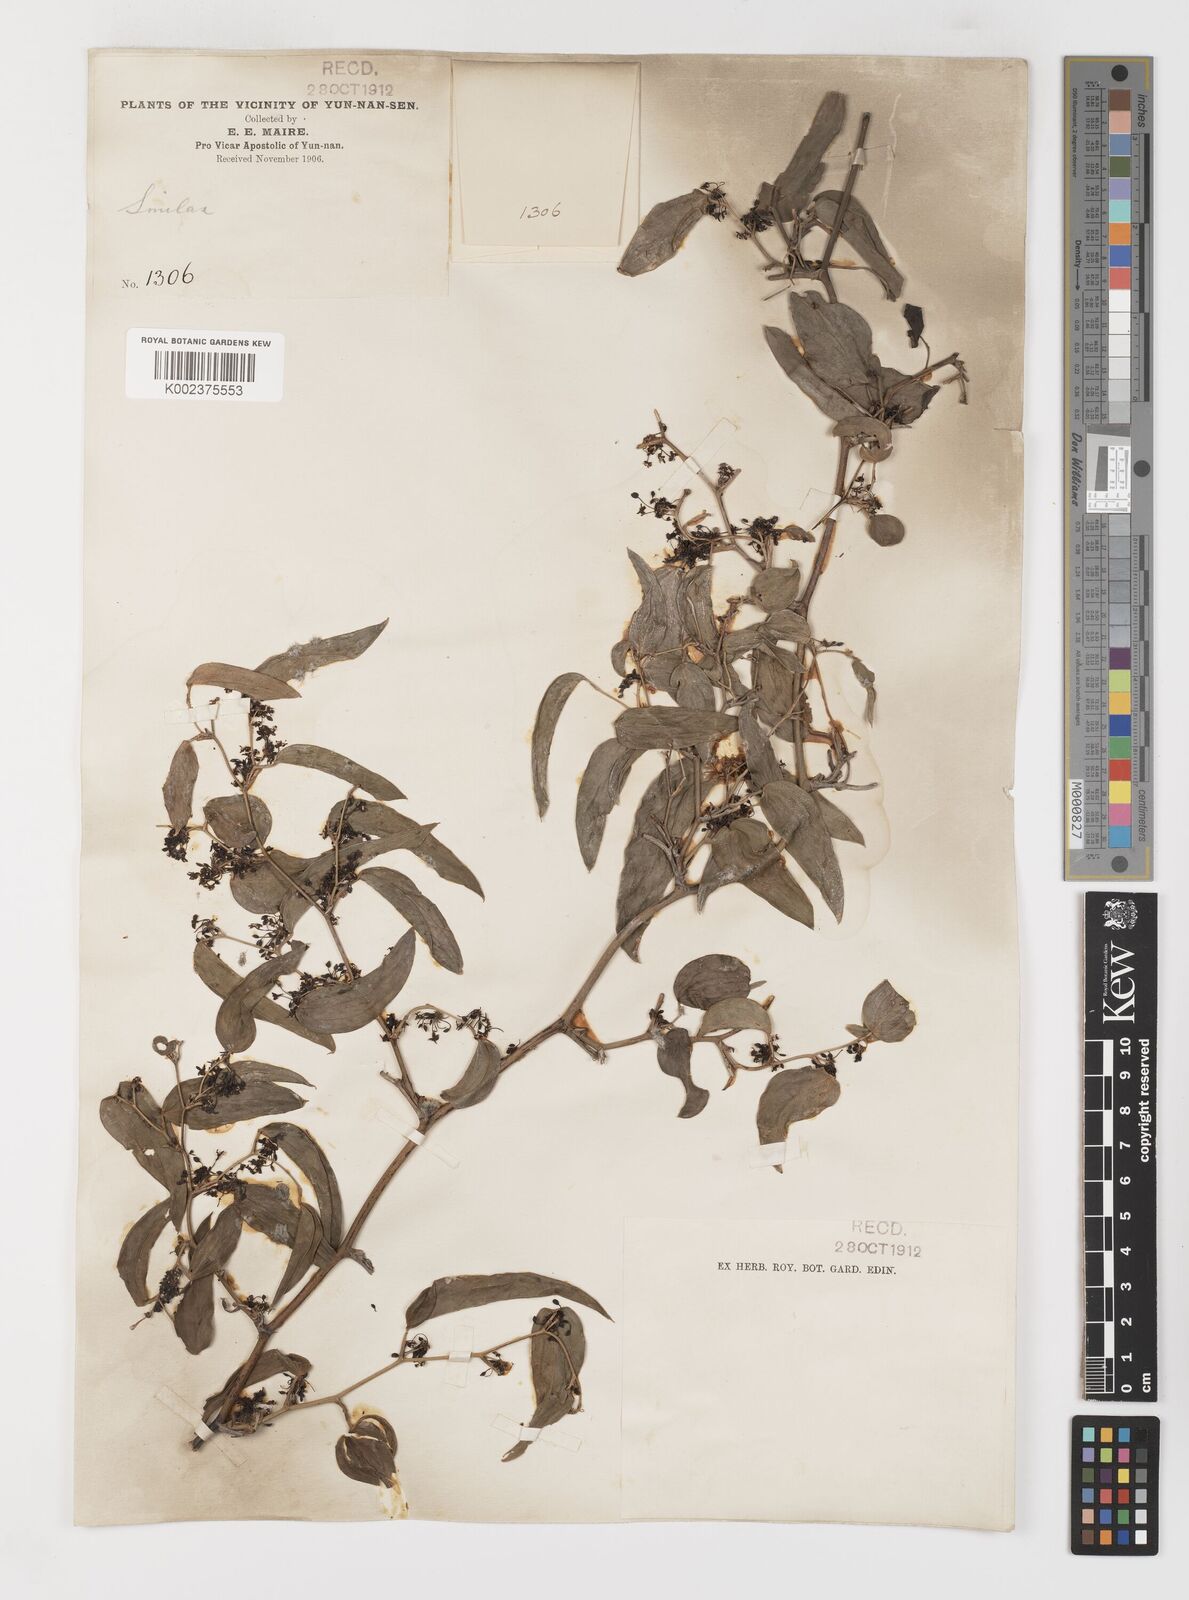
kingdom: Plantae
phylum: Tracheophyta
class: Liliopsida
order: Liliales
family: Smilacaceae
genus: Smilax
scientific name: Smilax lanceifolia
